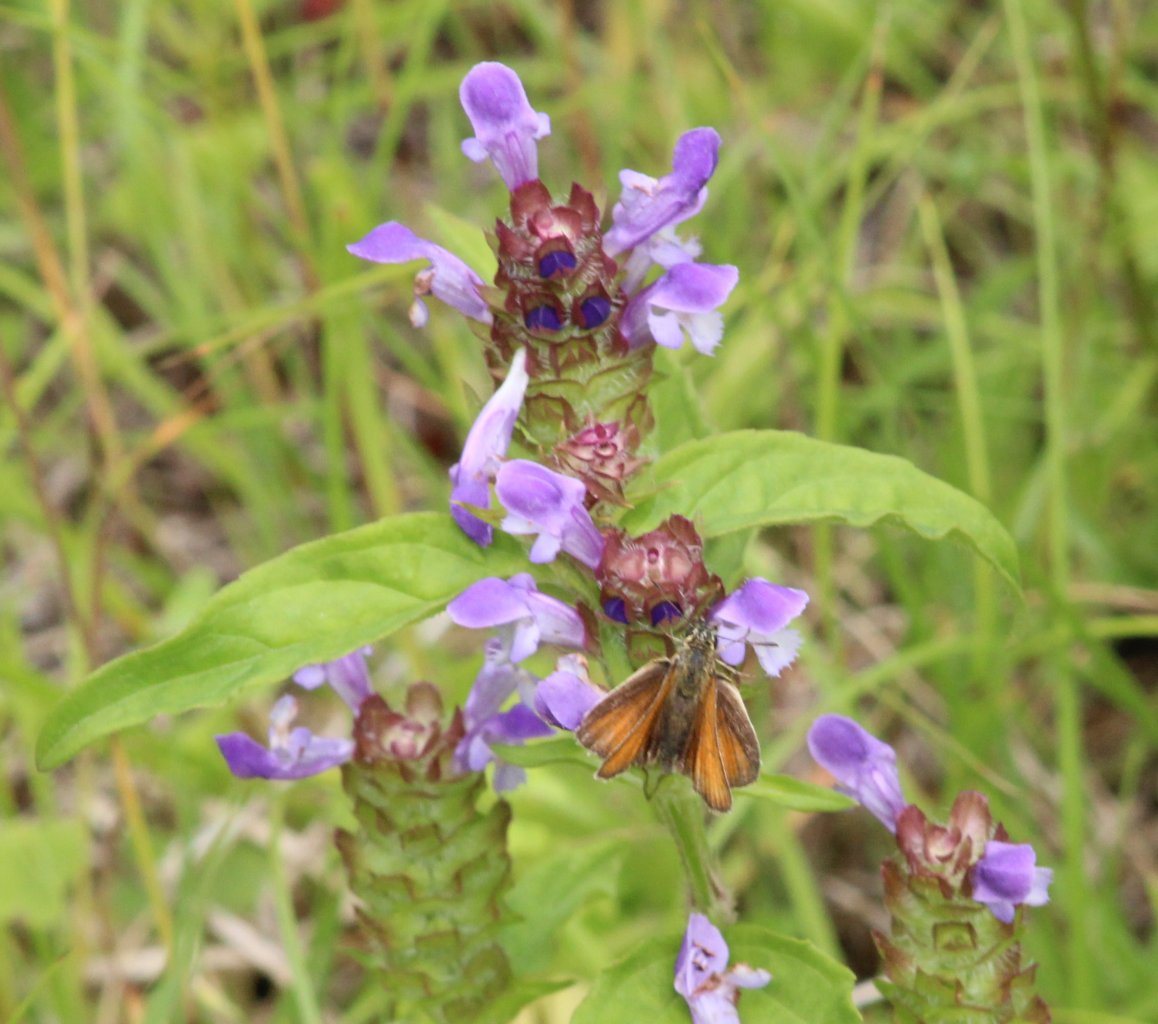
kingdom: Animalia
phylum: Arthropoda
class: Insecta
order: Lepidoptera
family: Hesperiidae
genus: Thymelicus
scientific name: Thymelicus lineola
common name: European Skipper
